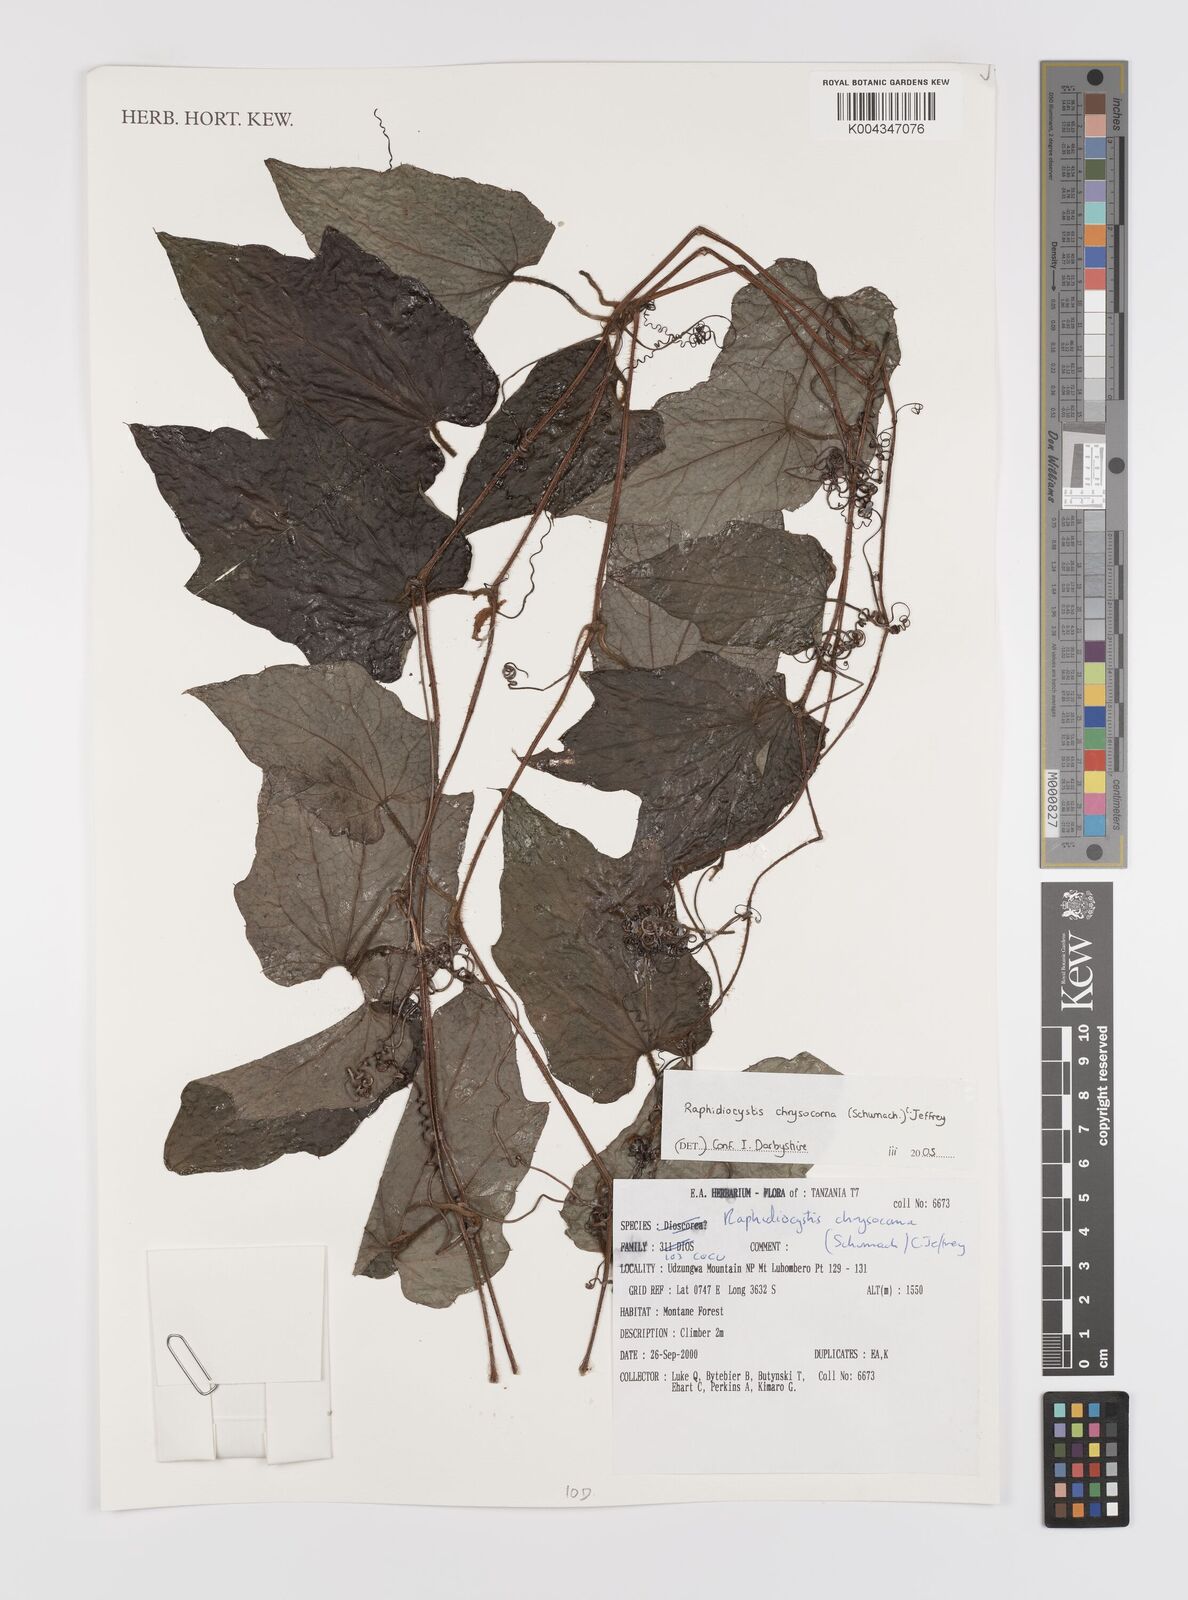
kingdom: Plantae
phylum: Tracheophyta
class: Magnoliopsida
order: Cucurbitales
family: Cucurbitaceae
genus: Raphidiocystis
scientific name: Raphidiocystis chrysocoma
